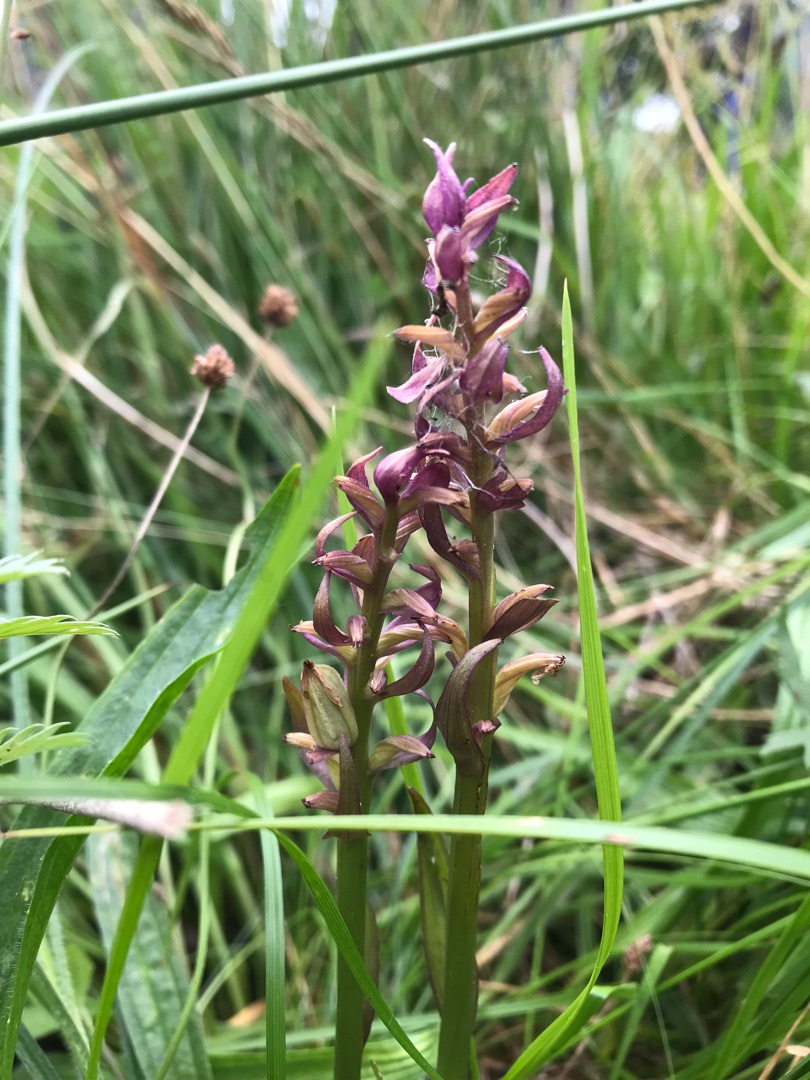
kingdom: Plantae
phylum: Tracheophyta
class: Liliopsida
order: Asparagales
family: Orchidaceae
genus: Dactylorhiza
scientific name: Dactylorhiza majalis
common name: Maj-gøgeurt
